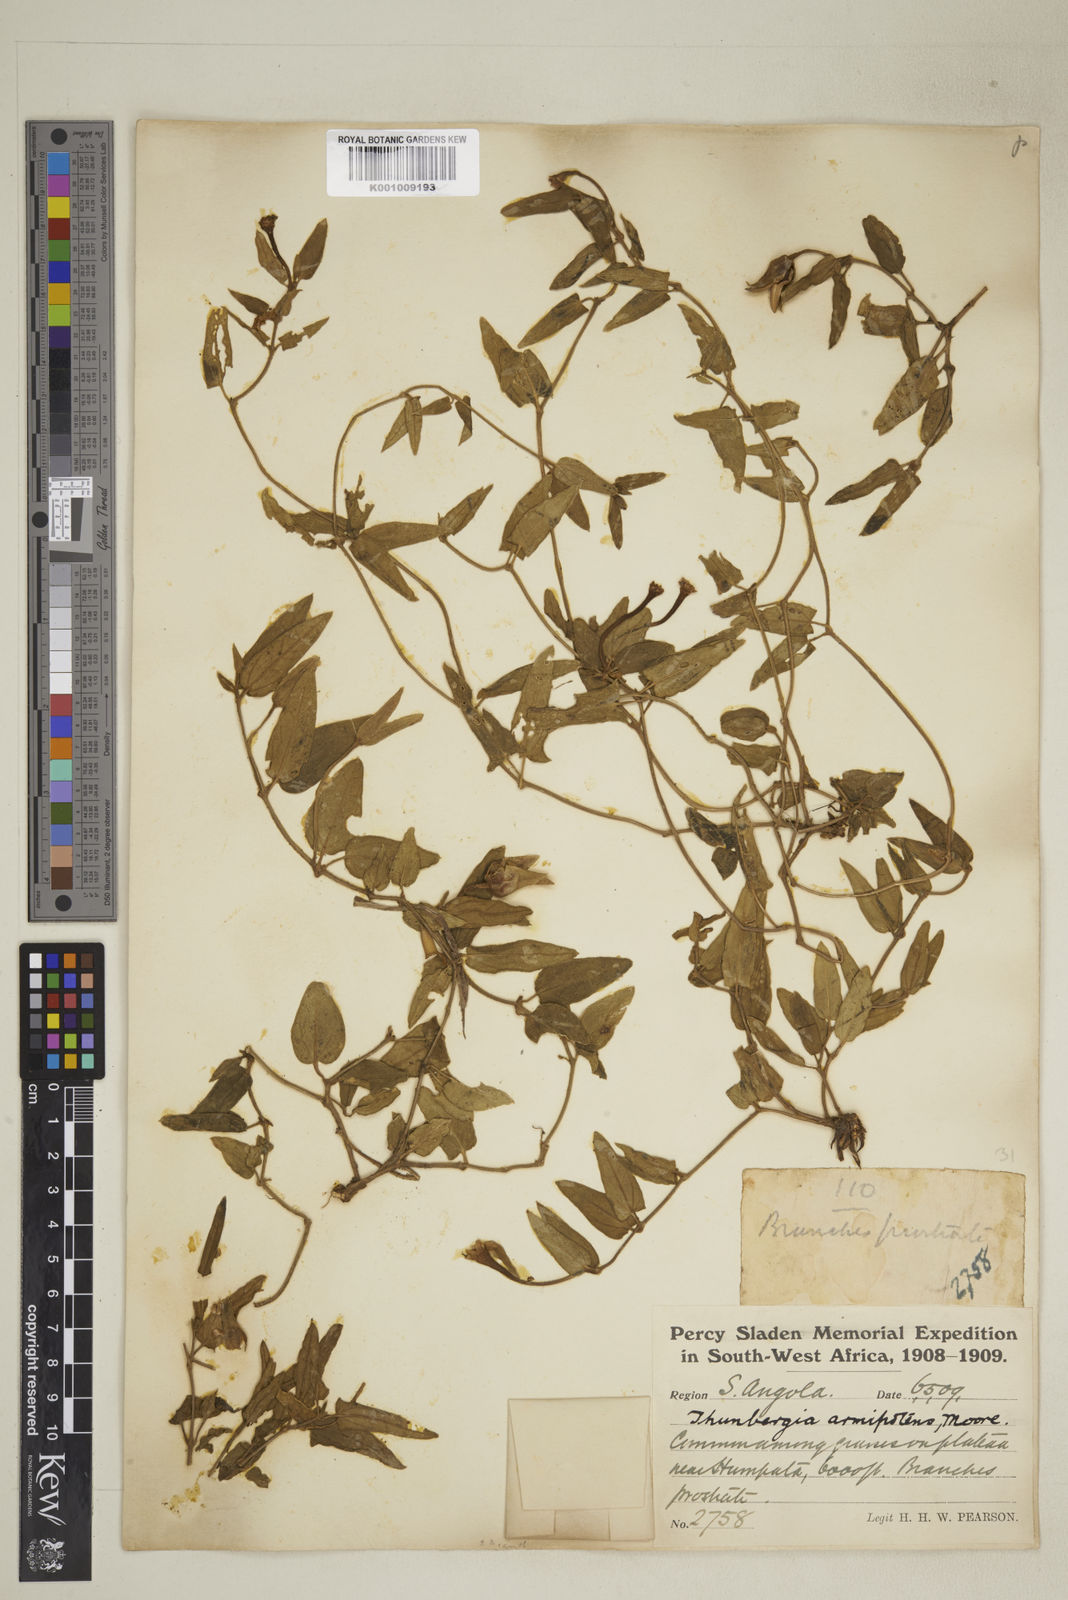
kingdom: Plantae
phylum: Tracheophyta
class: Magnoliopsida
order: Lamiales
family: Acanthaceae
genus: Thunbergia
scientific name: Thunbergia armipotens
